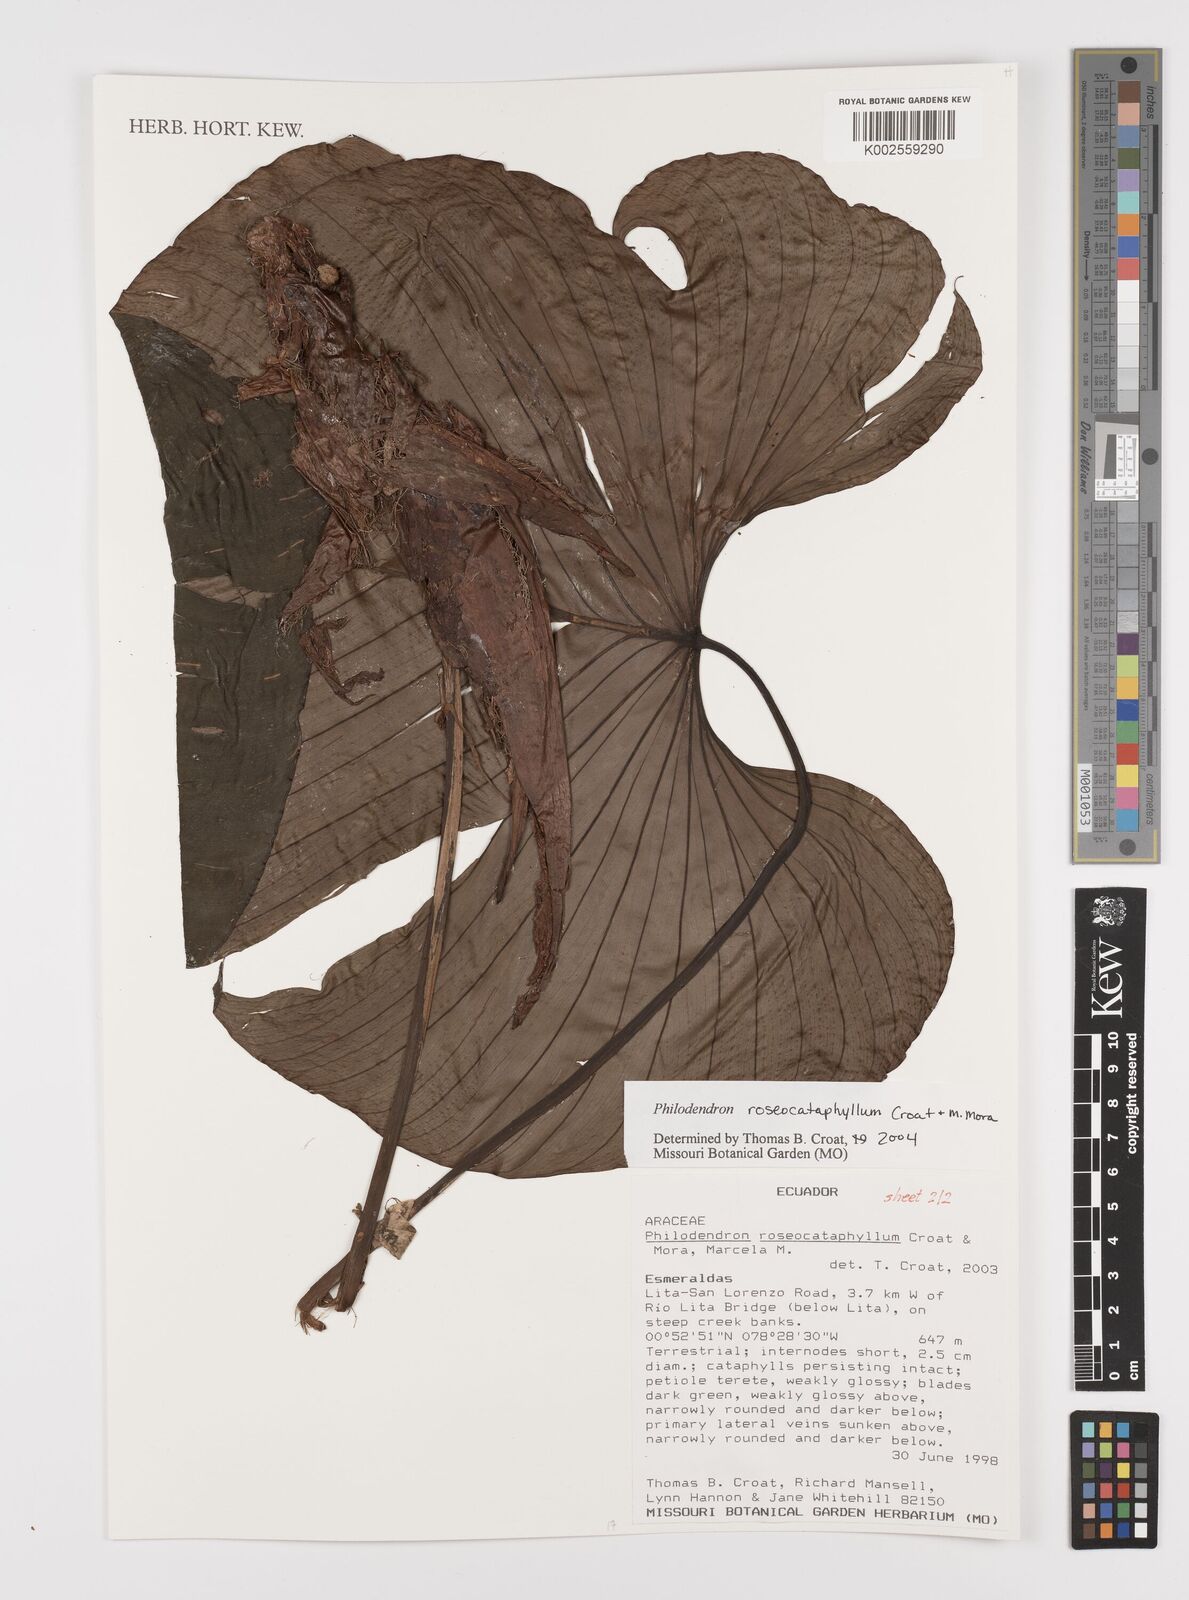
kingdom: Plantae
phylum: Tracheophyta
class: Liliopsida
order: Alismatales
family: Araceae
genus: Philodendron
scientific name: Philodendron roseocataphyllum
